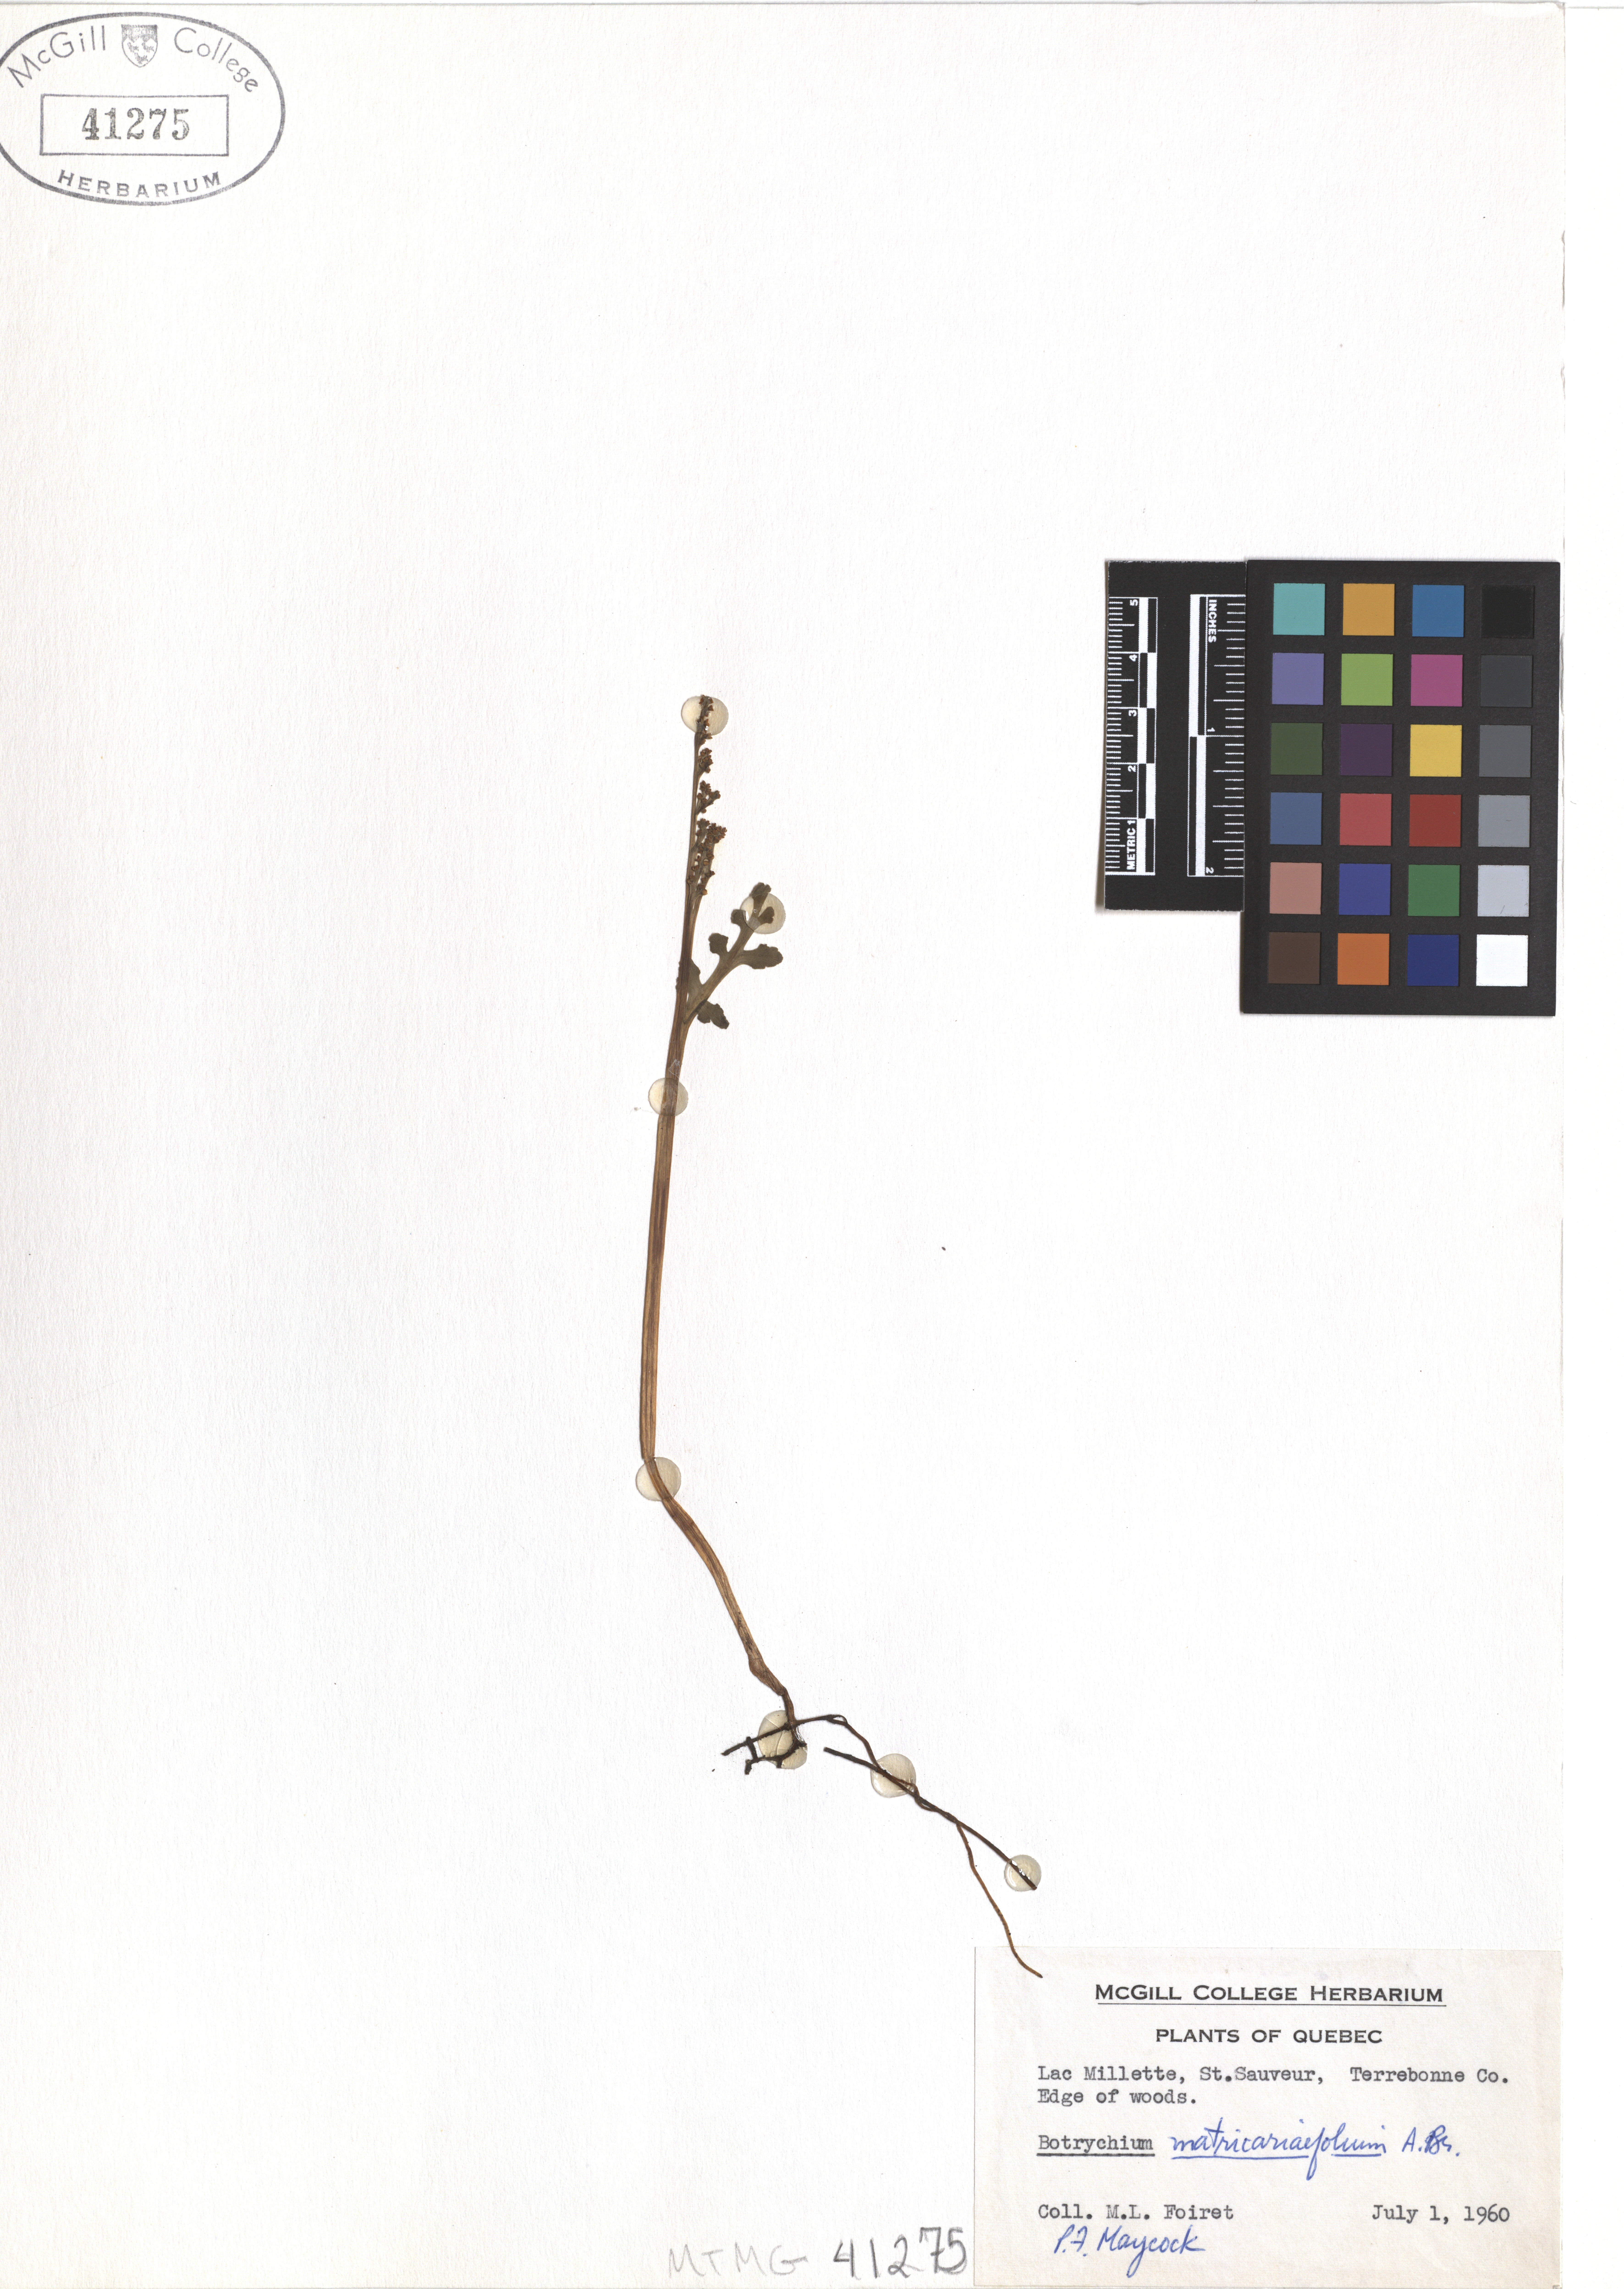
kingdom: Plantae
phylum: Tracheophyta
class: Polypodiopsida
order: Ophioglossales
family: Ophioglossaceae
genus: Botrychium
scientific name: Botrychium matricariifolium
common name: Branched moonwort
